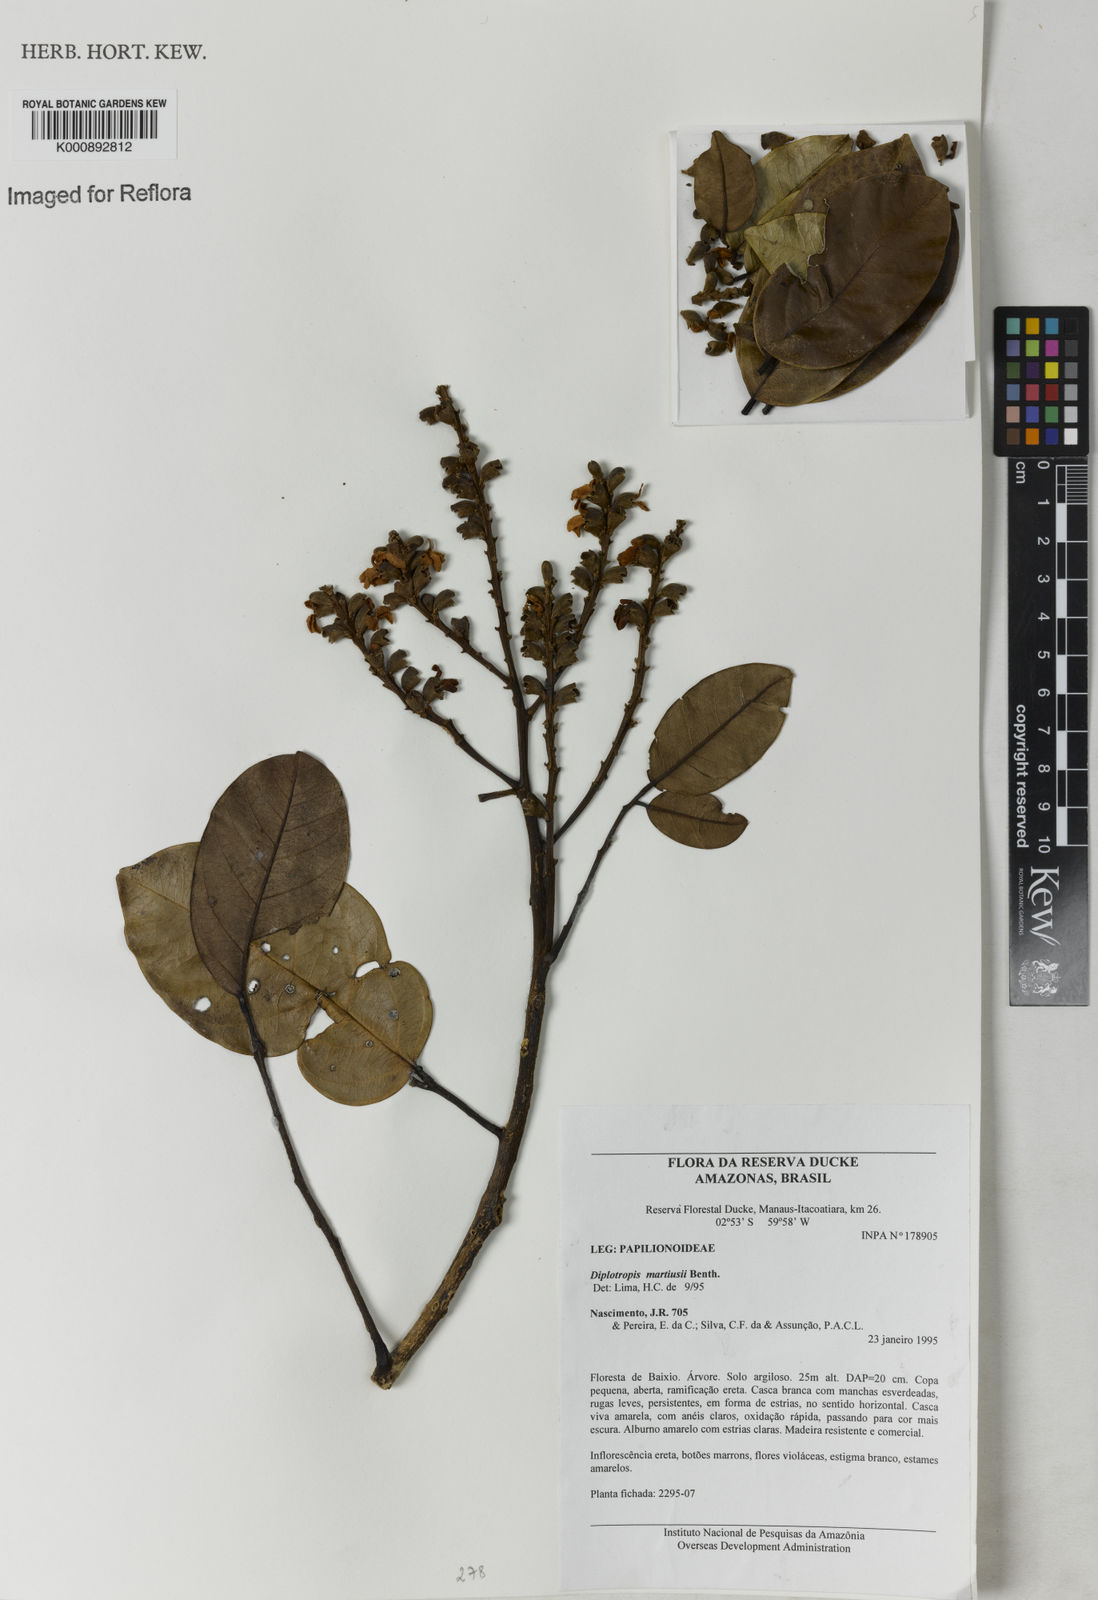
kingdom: Plantae
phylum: Tracheophyta
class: Magnoliopsida
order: Fabales
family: Fabaceae
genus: Diplotropis
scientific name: Diplotropis martiusii
